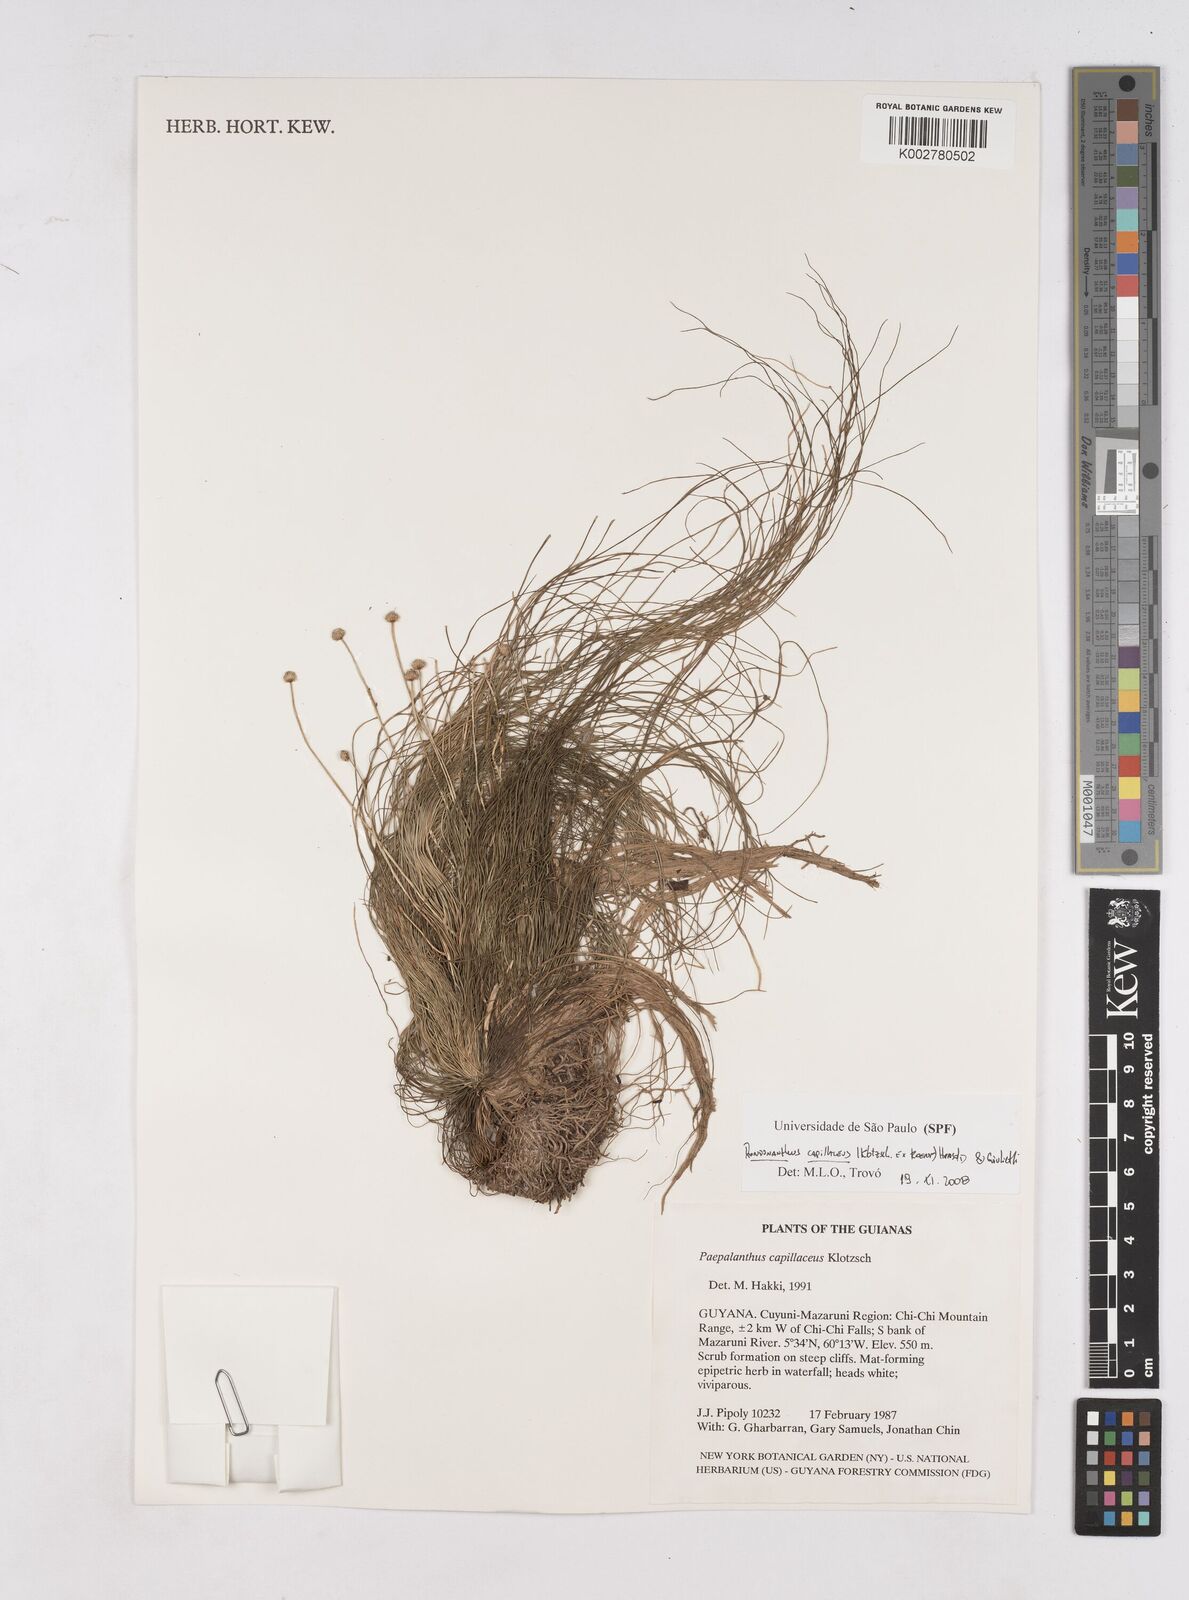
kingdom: Plantae
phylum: Tracheophyta
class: Liliopsida
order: Poales
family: Eriocaulaceae
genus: Rondonanthus
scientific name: Rondonanthus capillaceus
